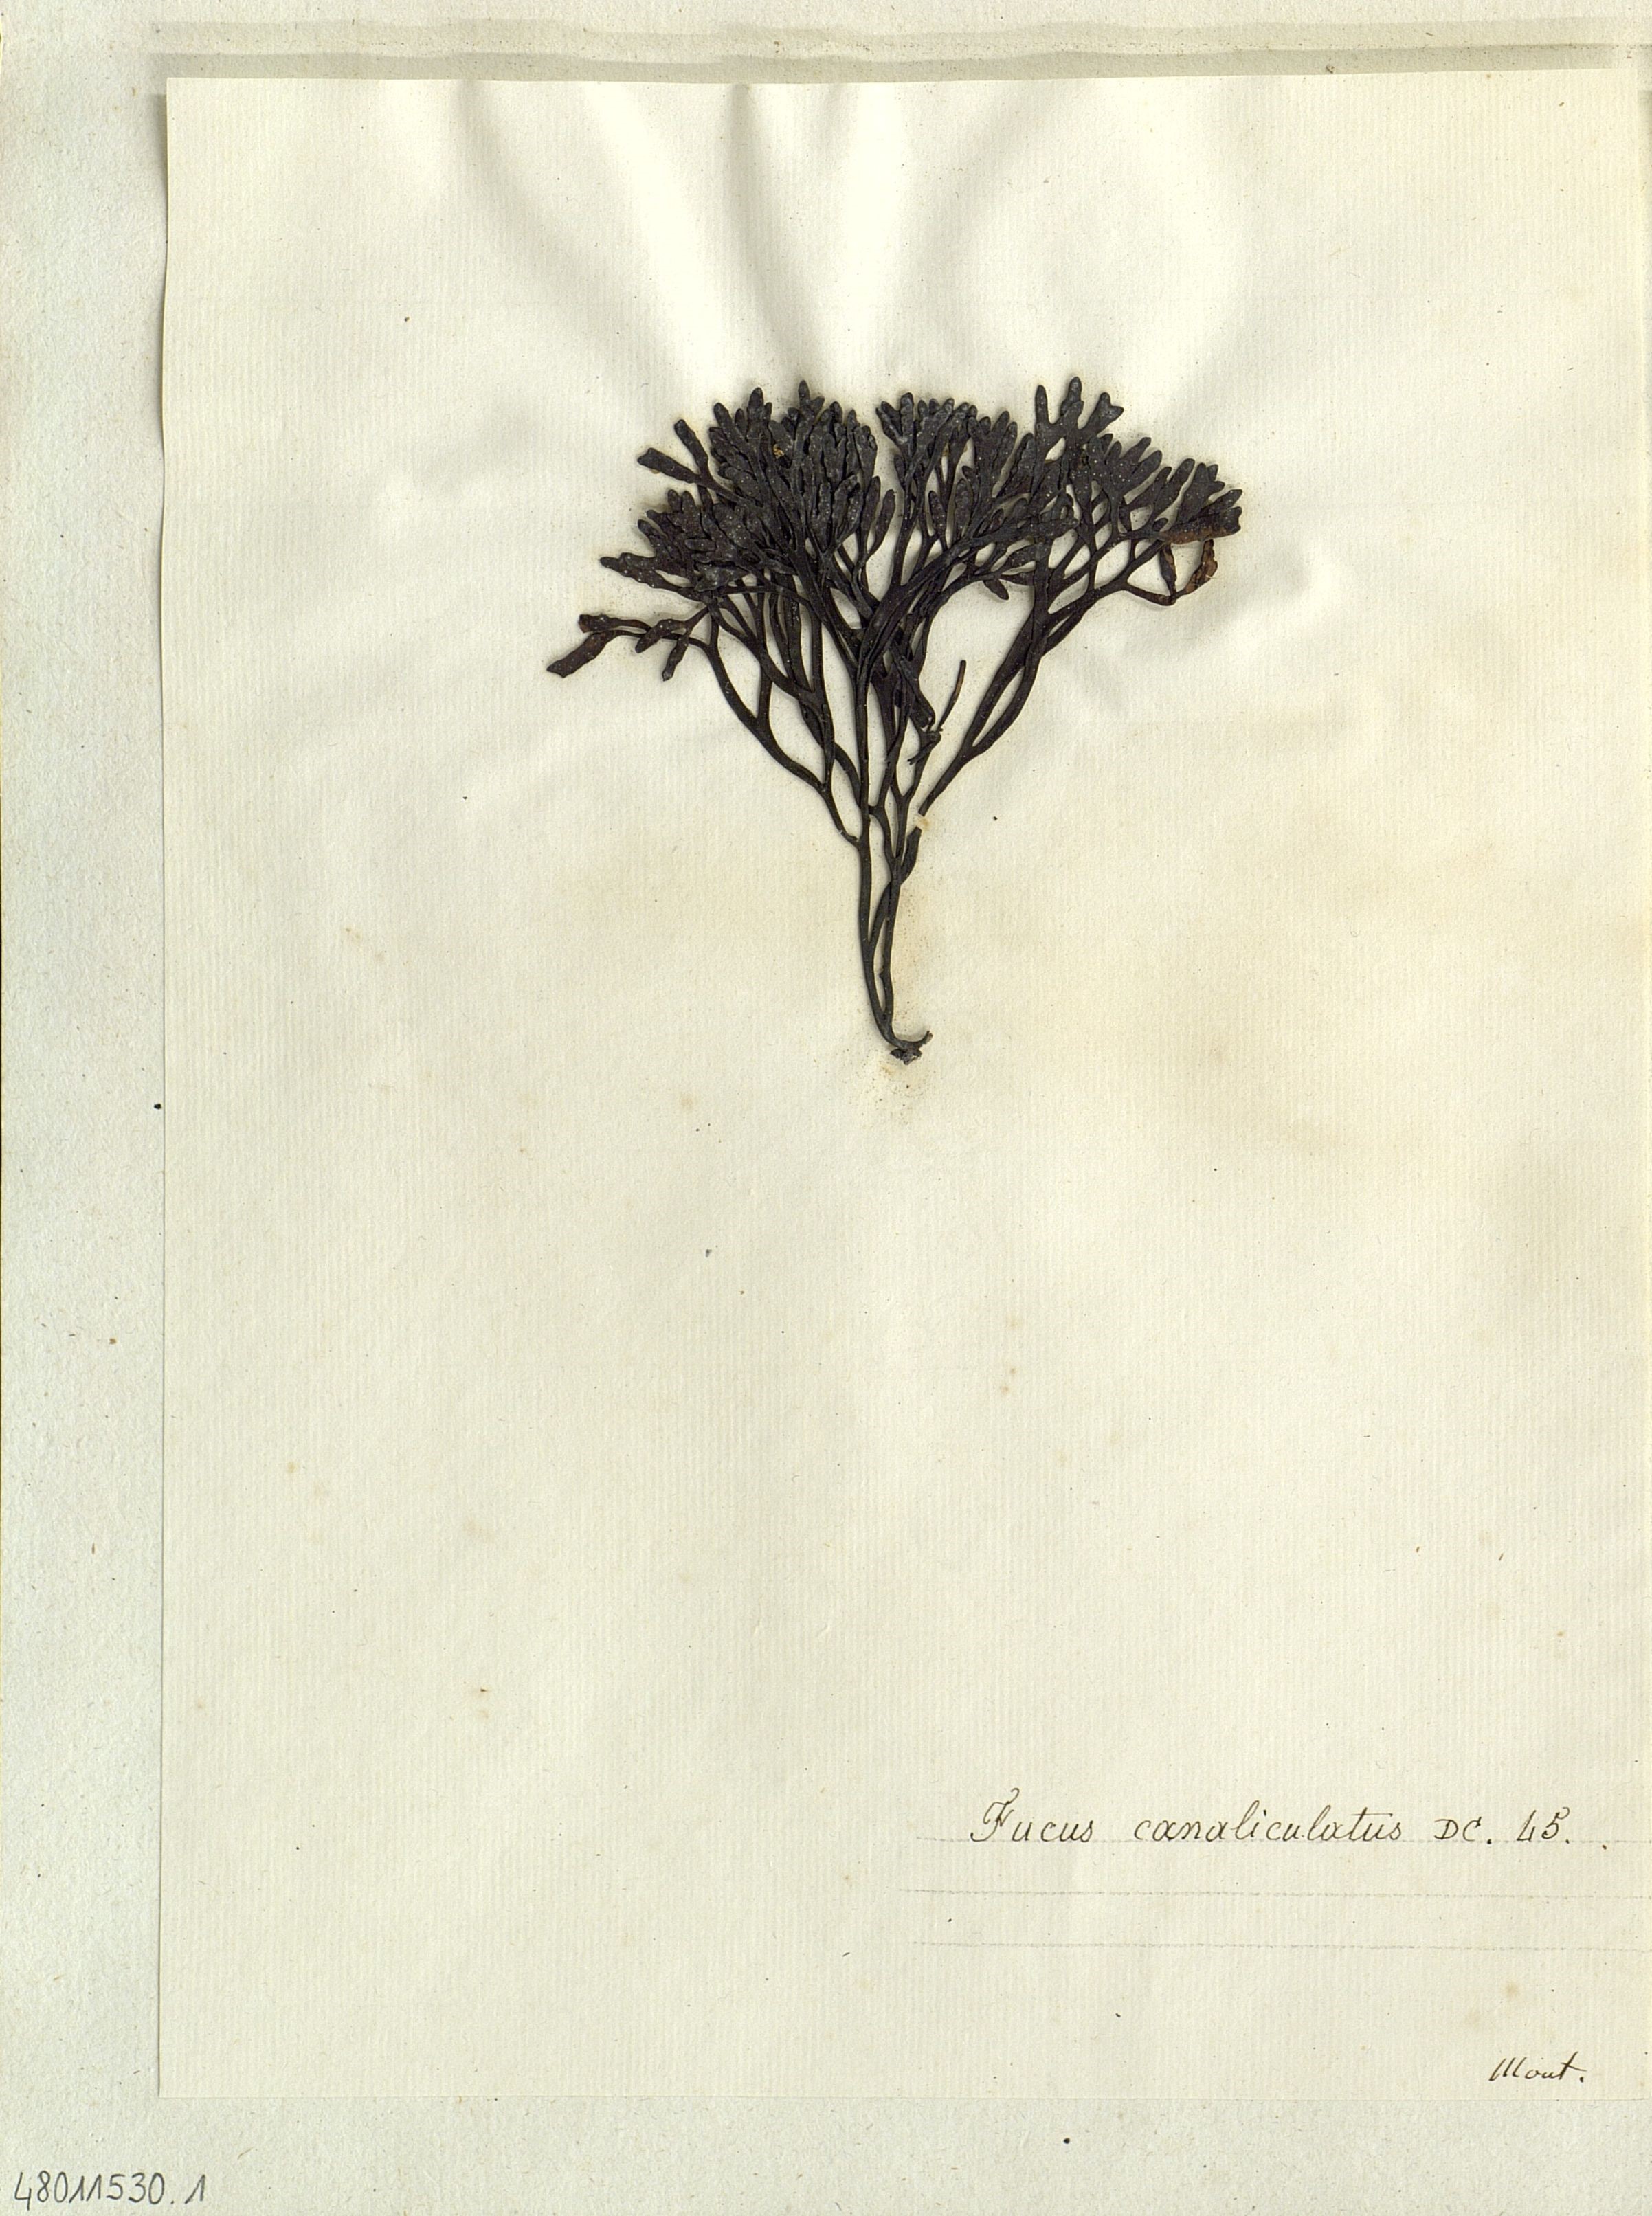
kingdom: Chromista
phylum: Ochrophyta
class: Phaeophyceae
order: Fucales
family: Fucaceae
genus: Pelvetia
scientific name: Pelvetia canaliculata
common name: Channelled wrack
